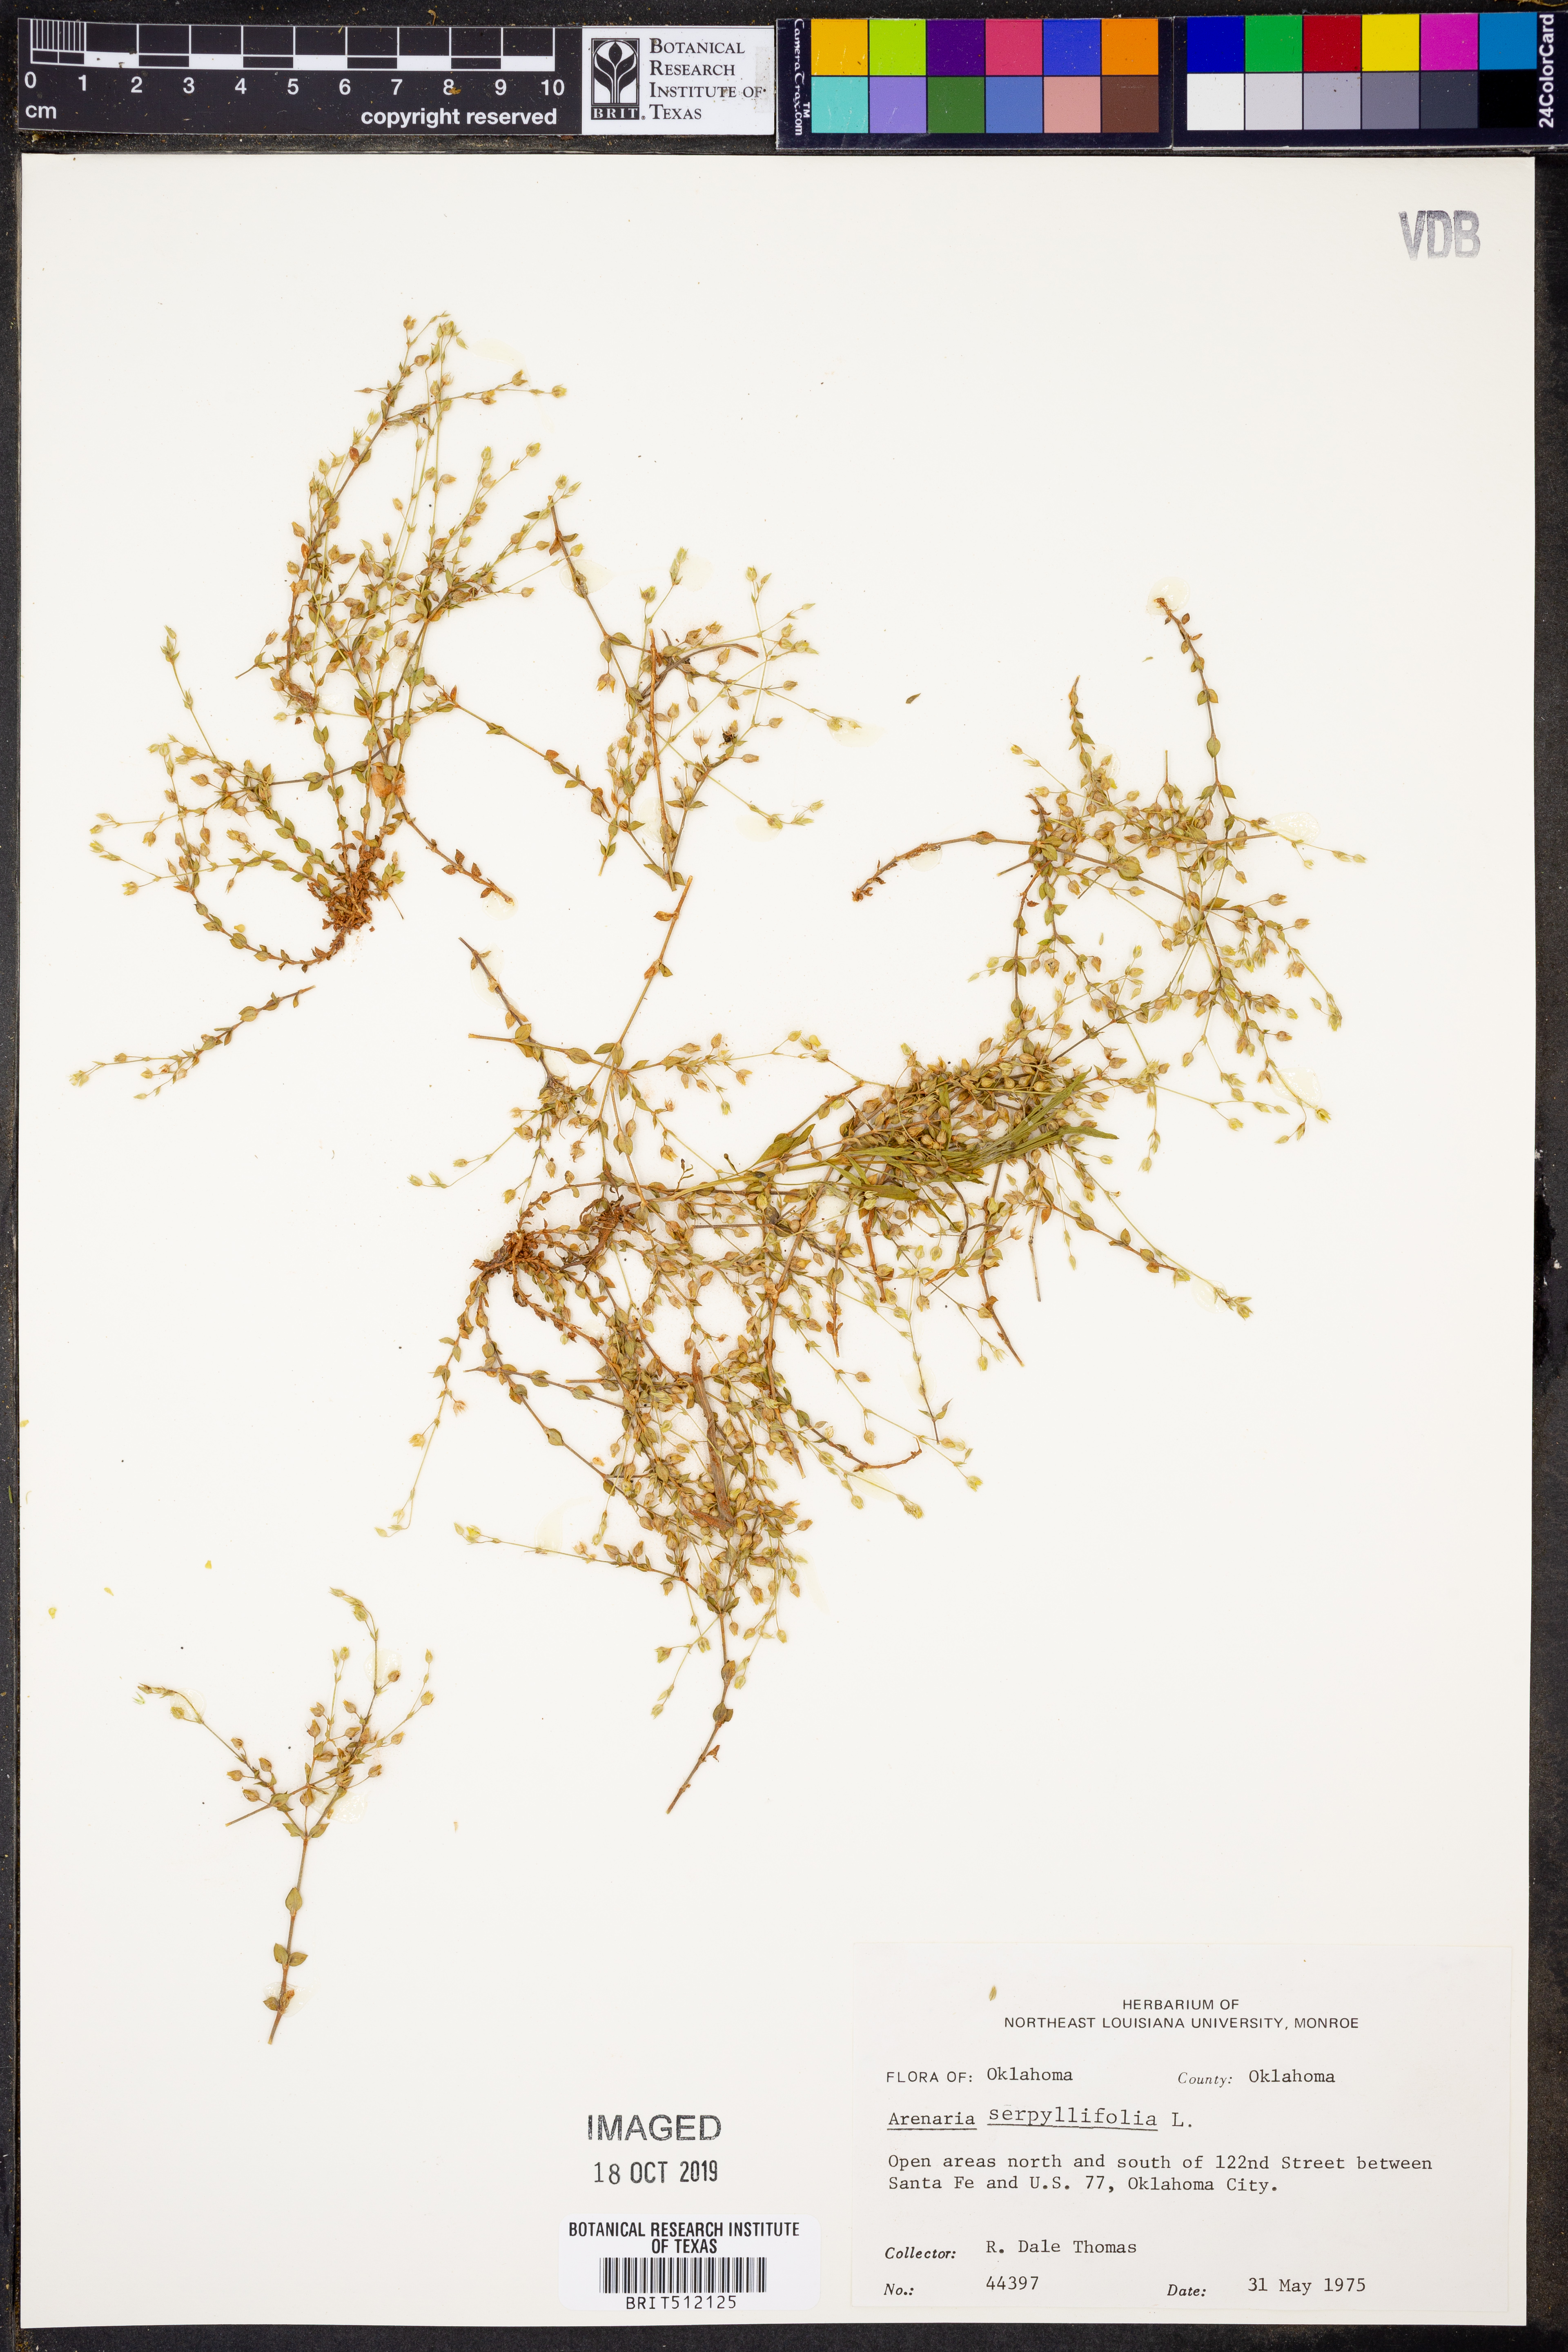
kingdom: Plantae
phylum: Tracheophyta
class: Magnoliopsida
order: Caryophyllales
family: Caryophyllaceae
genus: Arenaria
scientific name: Arenaria serpyllifolia
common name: Thyme-leaved sandwort
